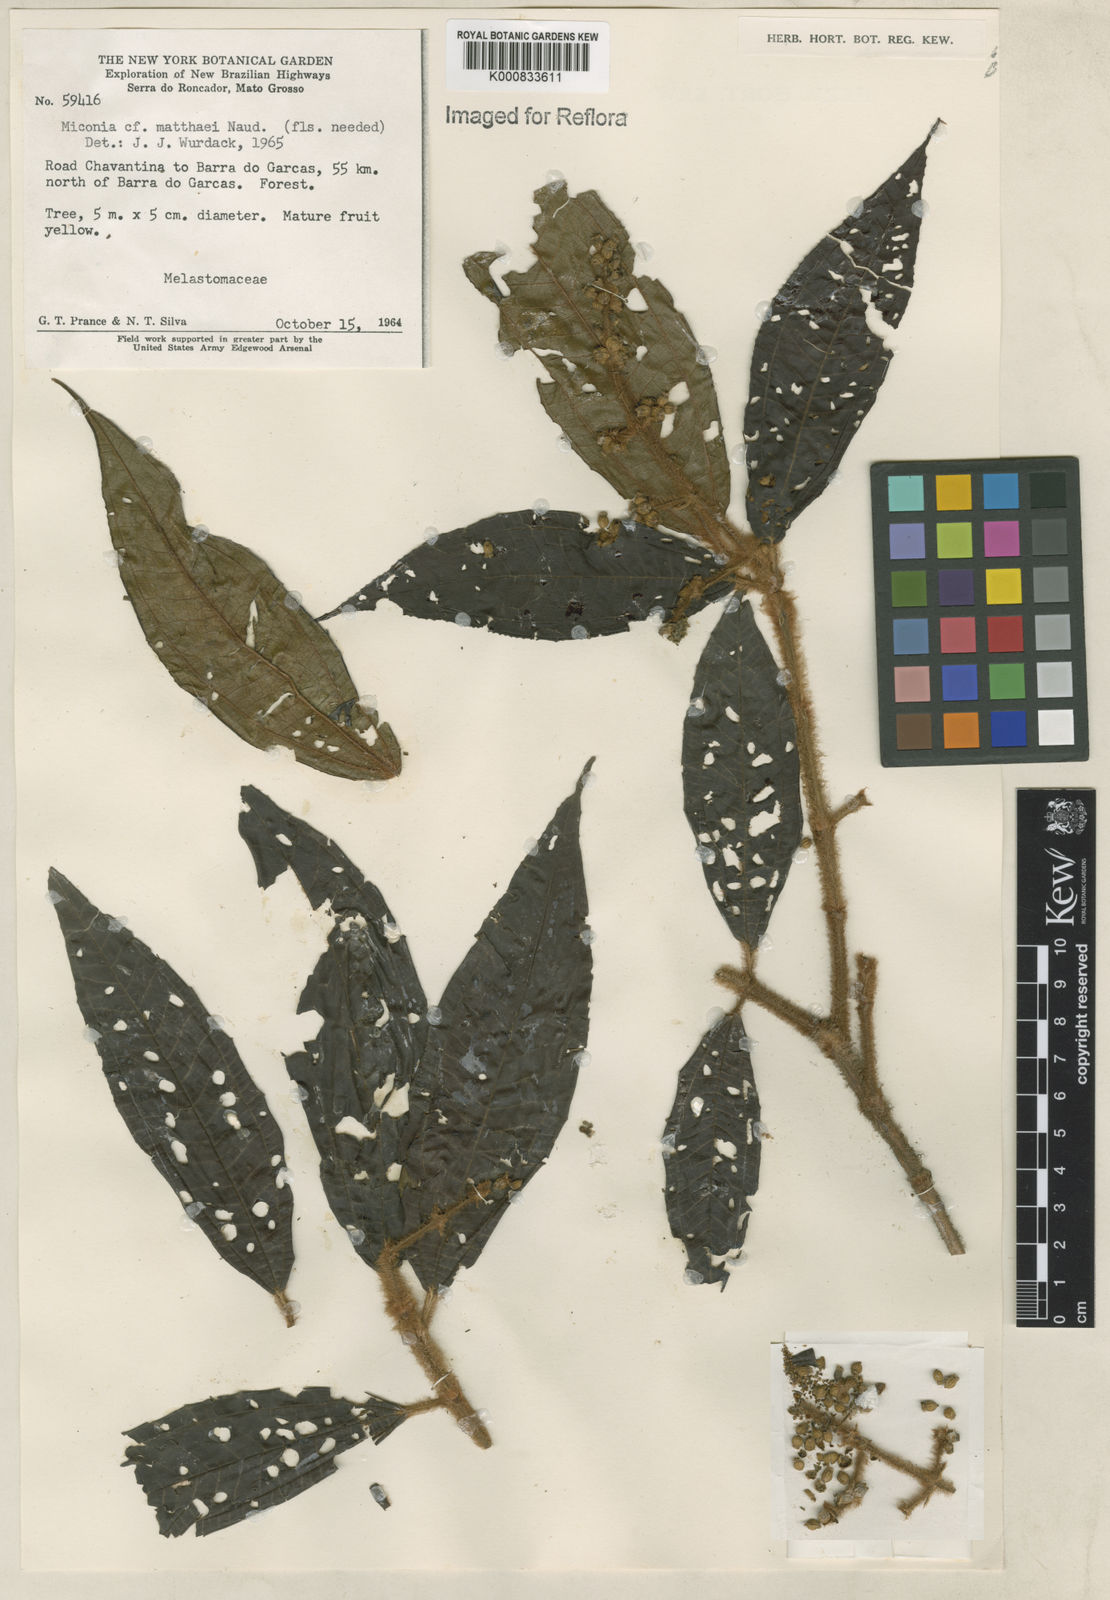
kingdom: Plantae
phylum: Tracheophyta
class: Magnoliopsida
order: Myrtales
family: Melastomataceae
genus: Miconia
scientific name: Miconia matthaei
